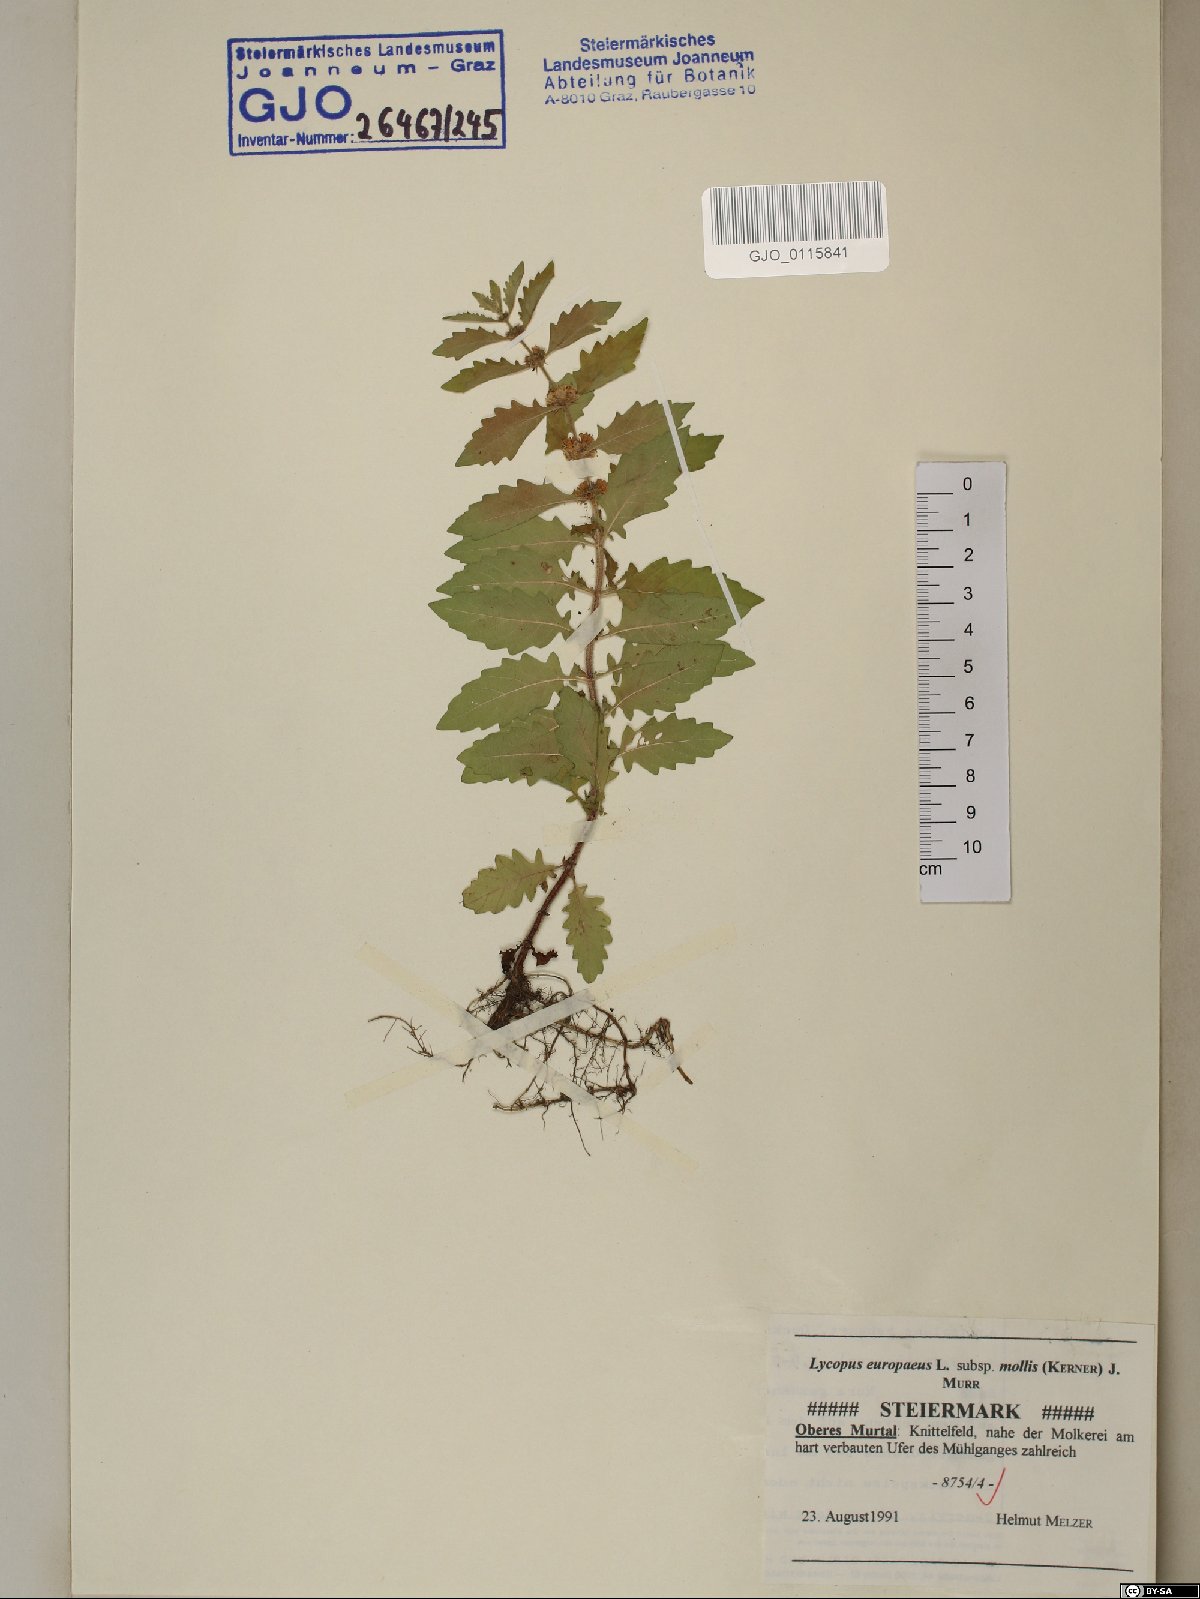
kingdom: Plantae
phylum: Tracheophyta
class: Magnoliopsida
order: Lamiales
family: Lamiaceae
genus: Lycopus
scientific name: Lycopus europaeus
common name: European bugleweed
